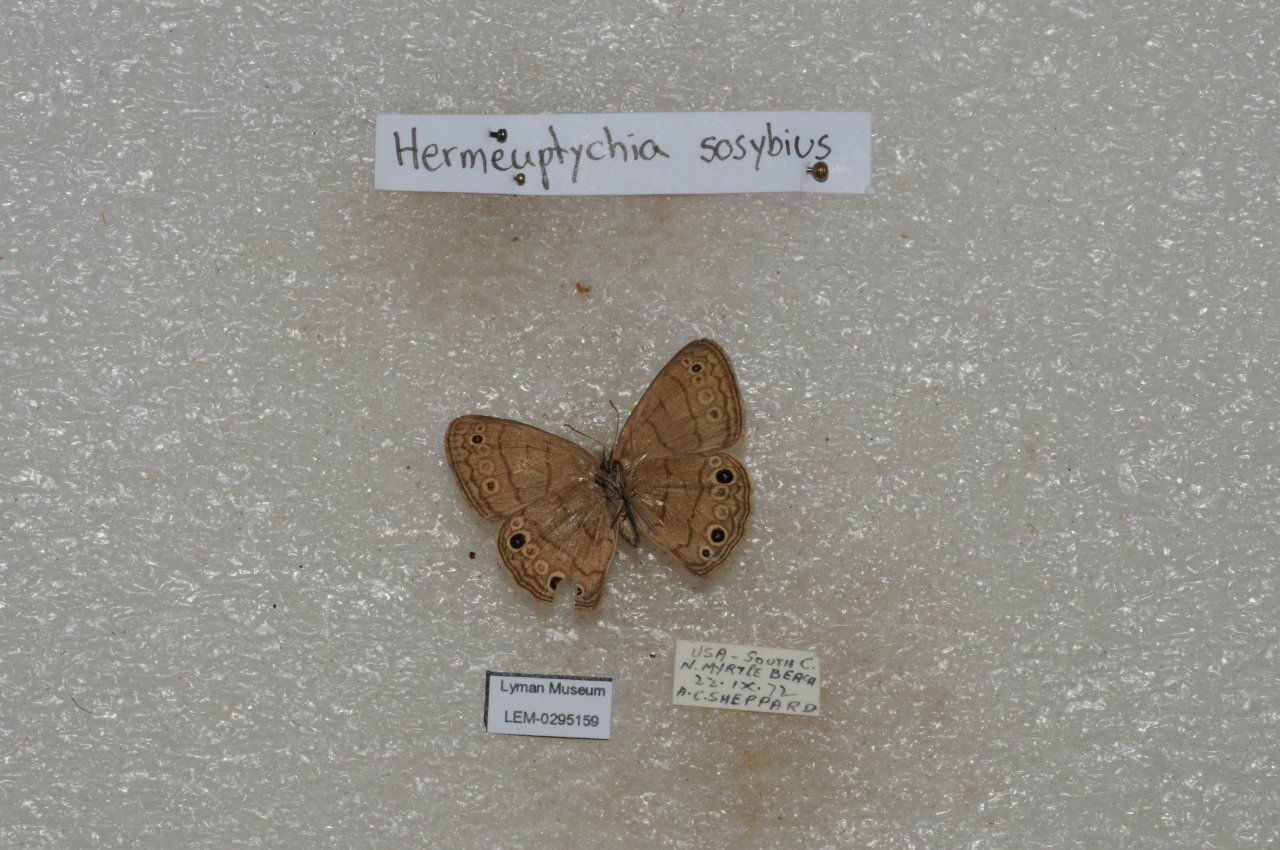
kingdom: Animalia
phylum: Arthropoda
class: Insecta
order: Lepidoptera
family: Nymphalidae
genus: Hermeuptychia
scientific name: Hermeuptychia hermes
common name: Carolina Satyr
